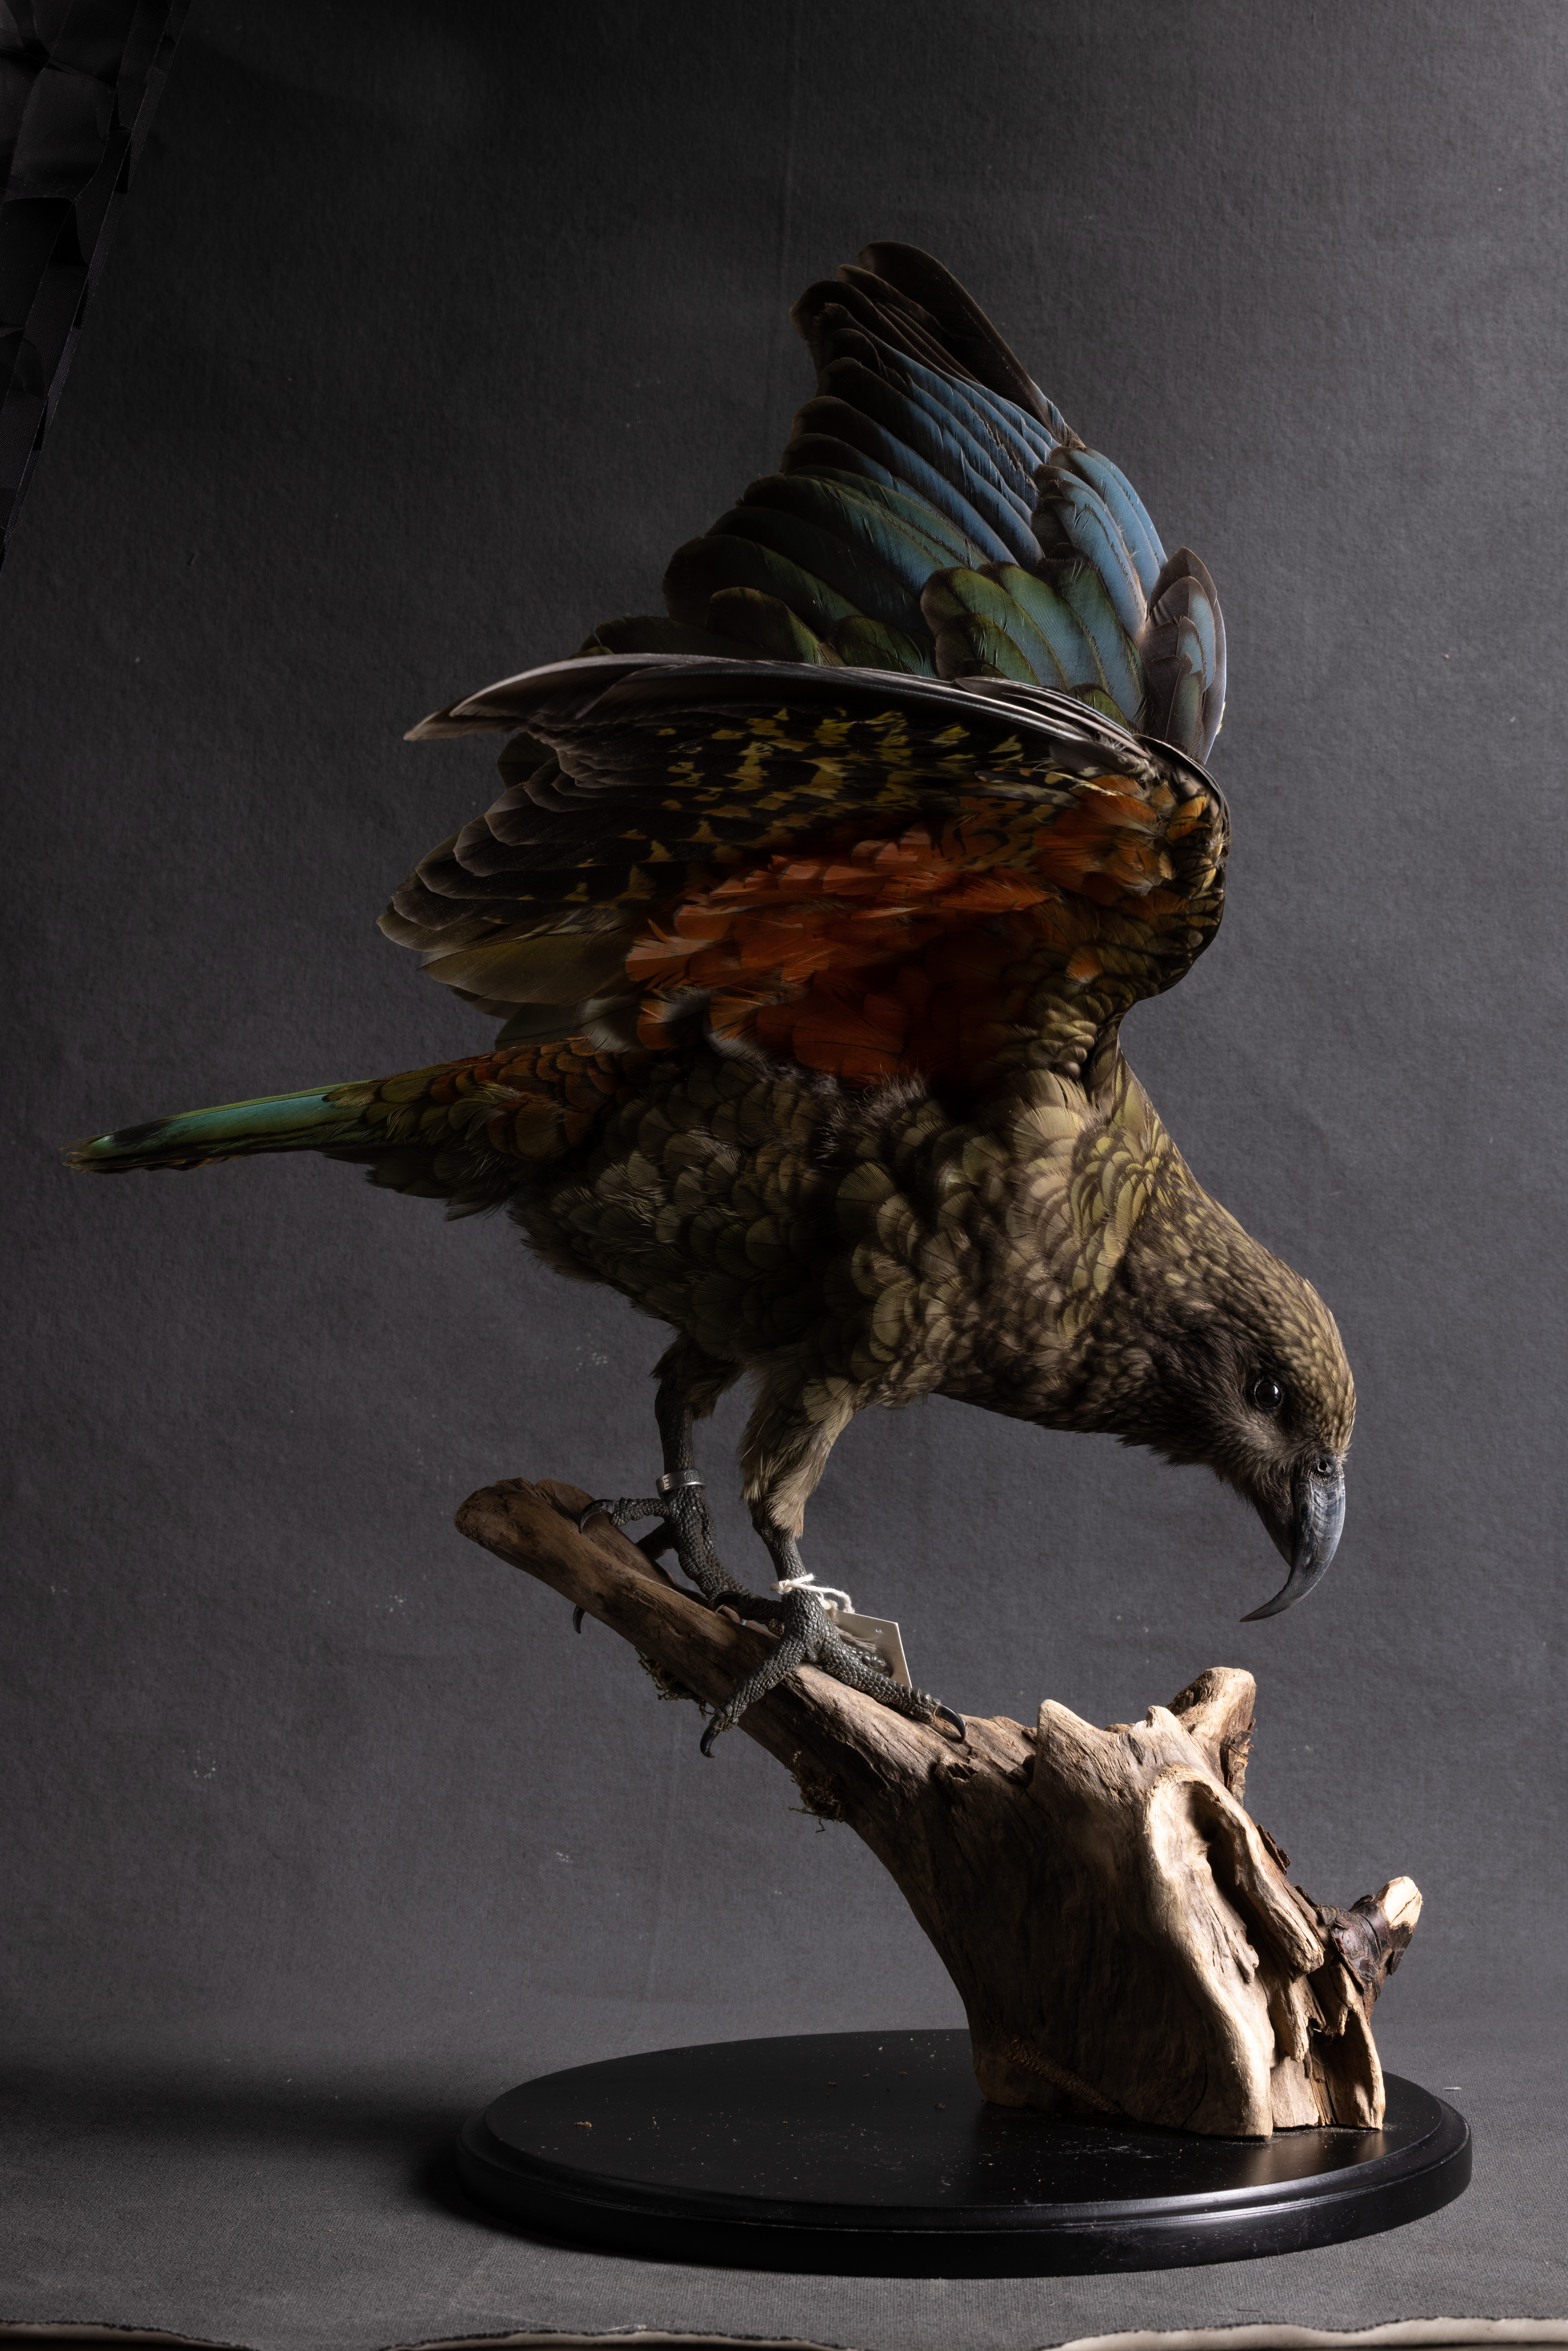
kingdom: Animalia
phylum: Chordata
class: Aves
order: Psittaciformes
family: Psittacidae
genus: Nestor
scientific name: Nestor meridionalis
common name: New zealand kaka
